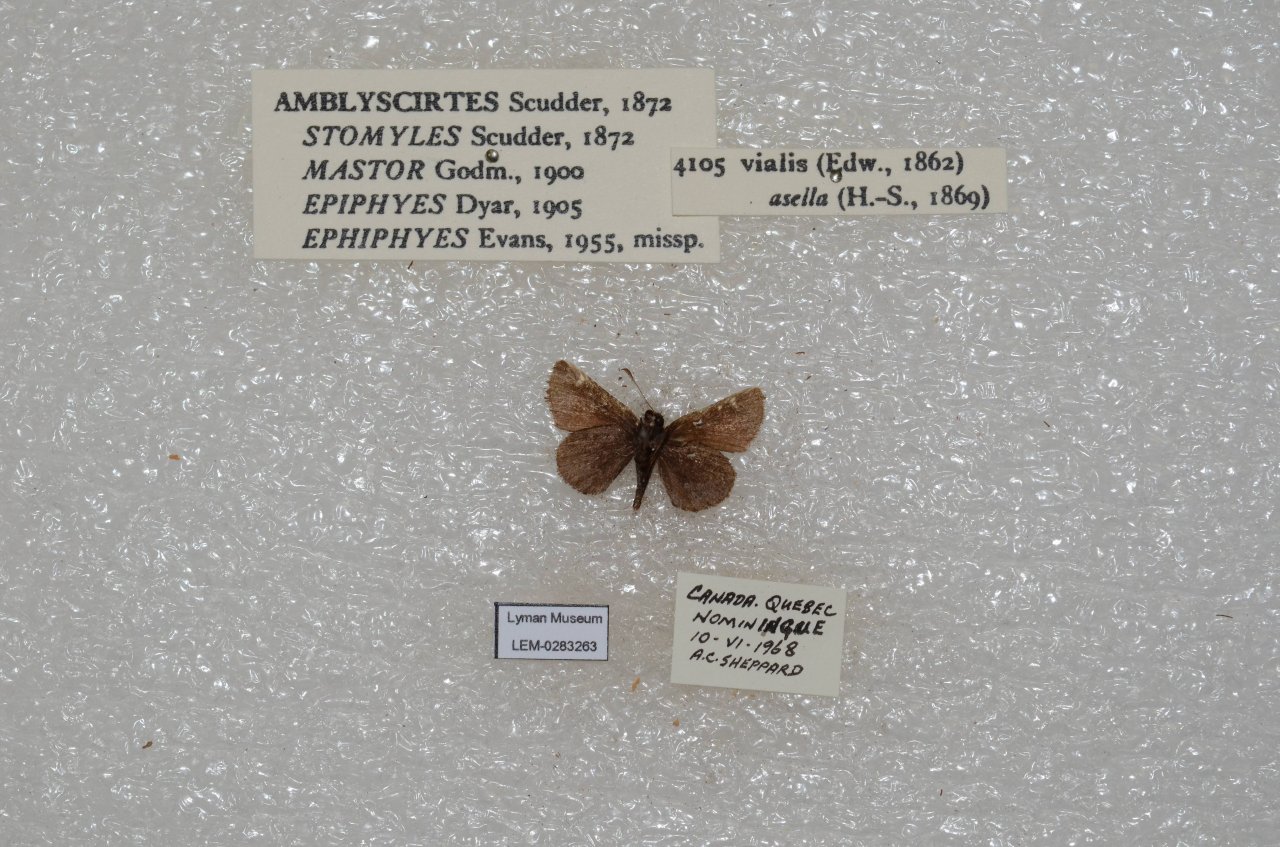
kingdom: Animalia
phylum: Arthropoda
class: Insecta
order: Lepidoptera
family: Hesperiidae
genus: Mastor
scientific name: Mastor vialis
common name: Common Roadside-Skipper
